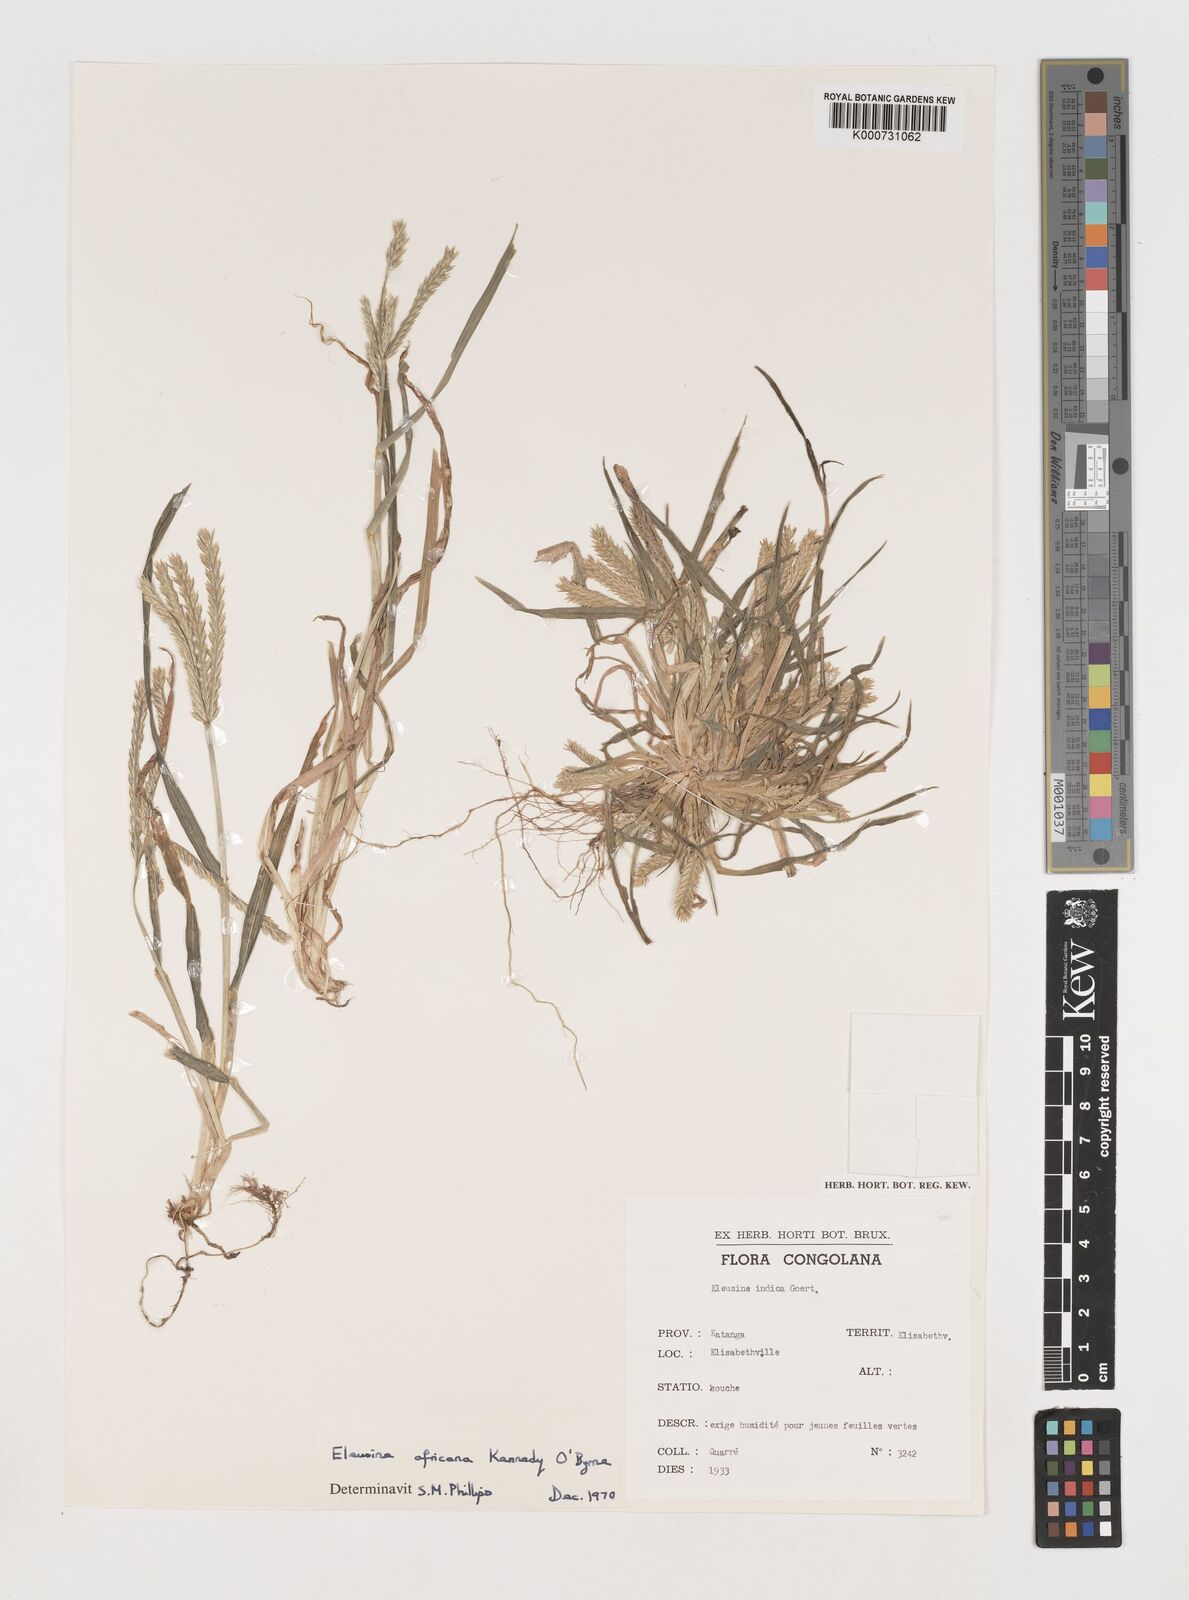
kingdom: Plantae
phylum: Tracheophyta
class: Liliopsida
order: Poales
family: Poaceae
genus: Eleusine
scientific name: Eleusine africana
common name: Wild african finger millet
